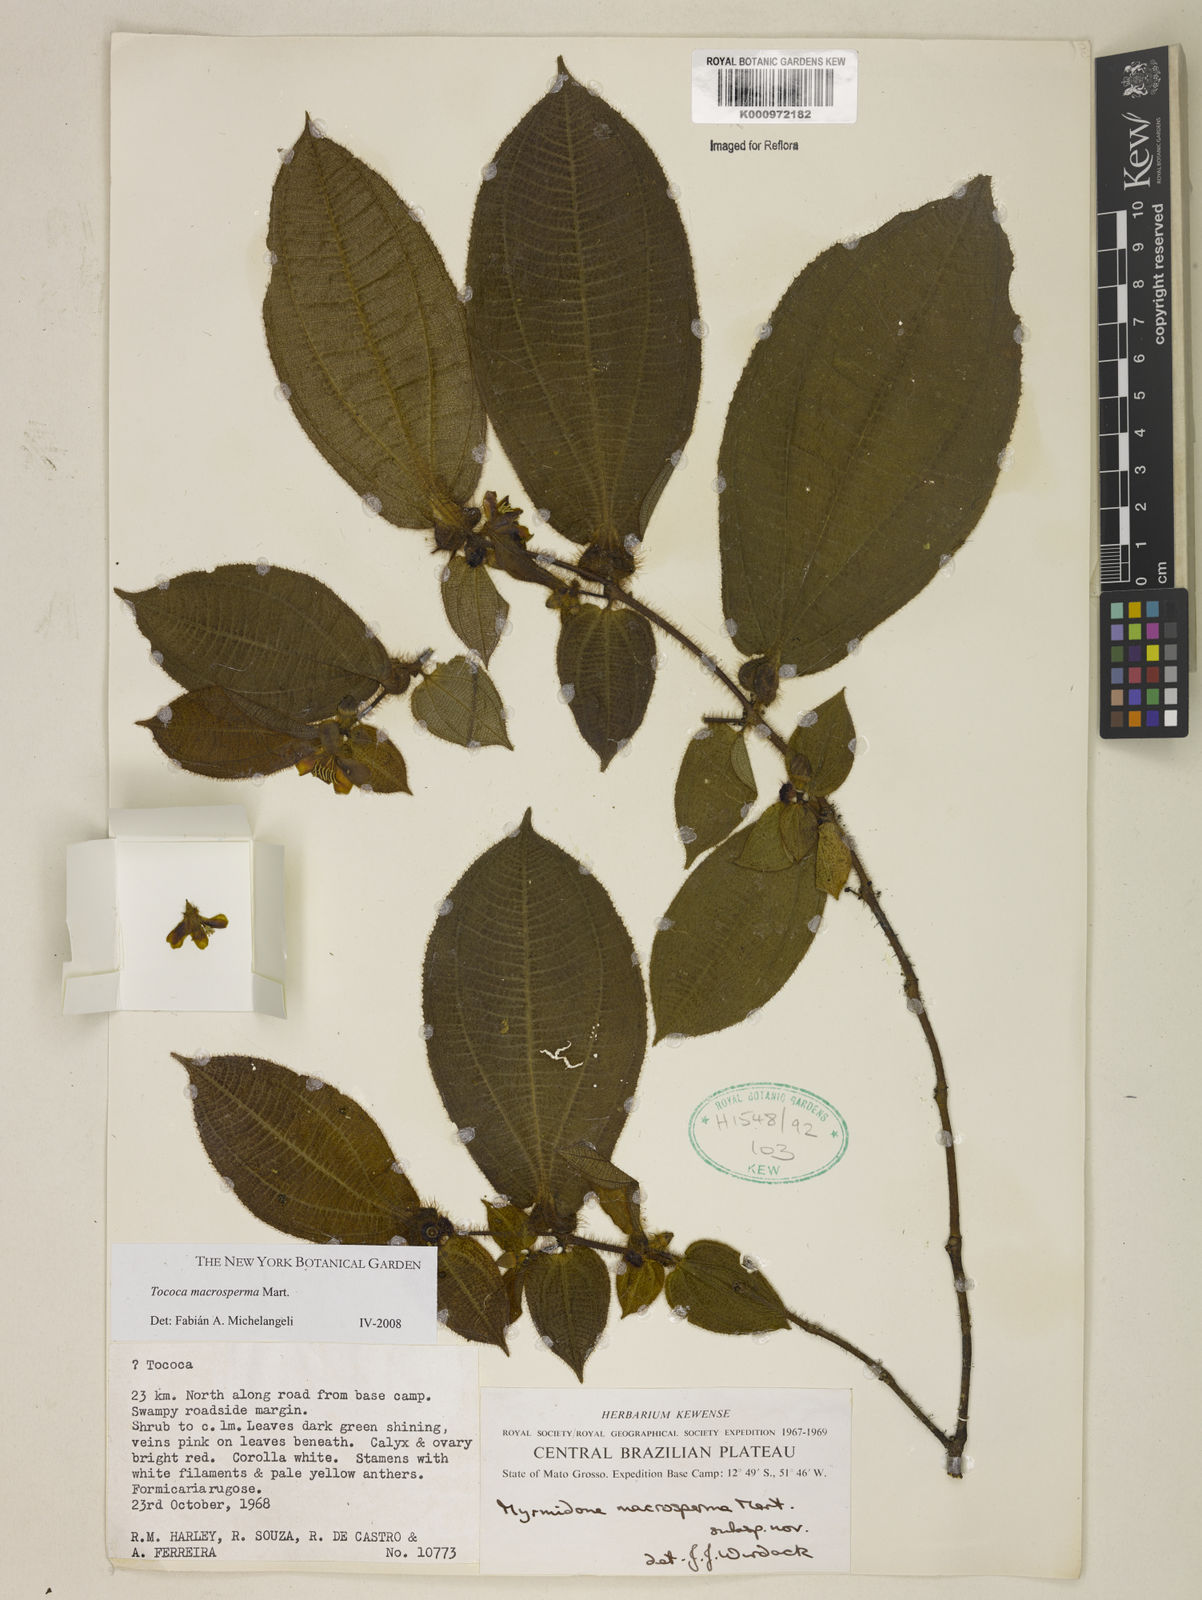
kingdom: Plantae
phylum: Tracheophyta
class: Magnoliopsida
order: Myrtales
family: Melastomataceae
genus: Miconia
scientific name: Miconia macrosperma
